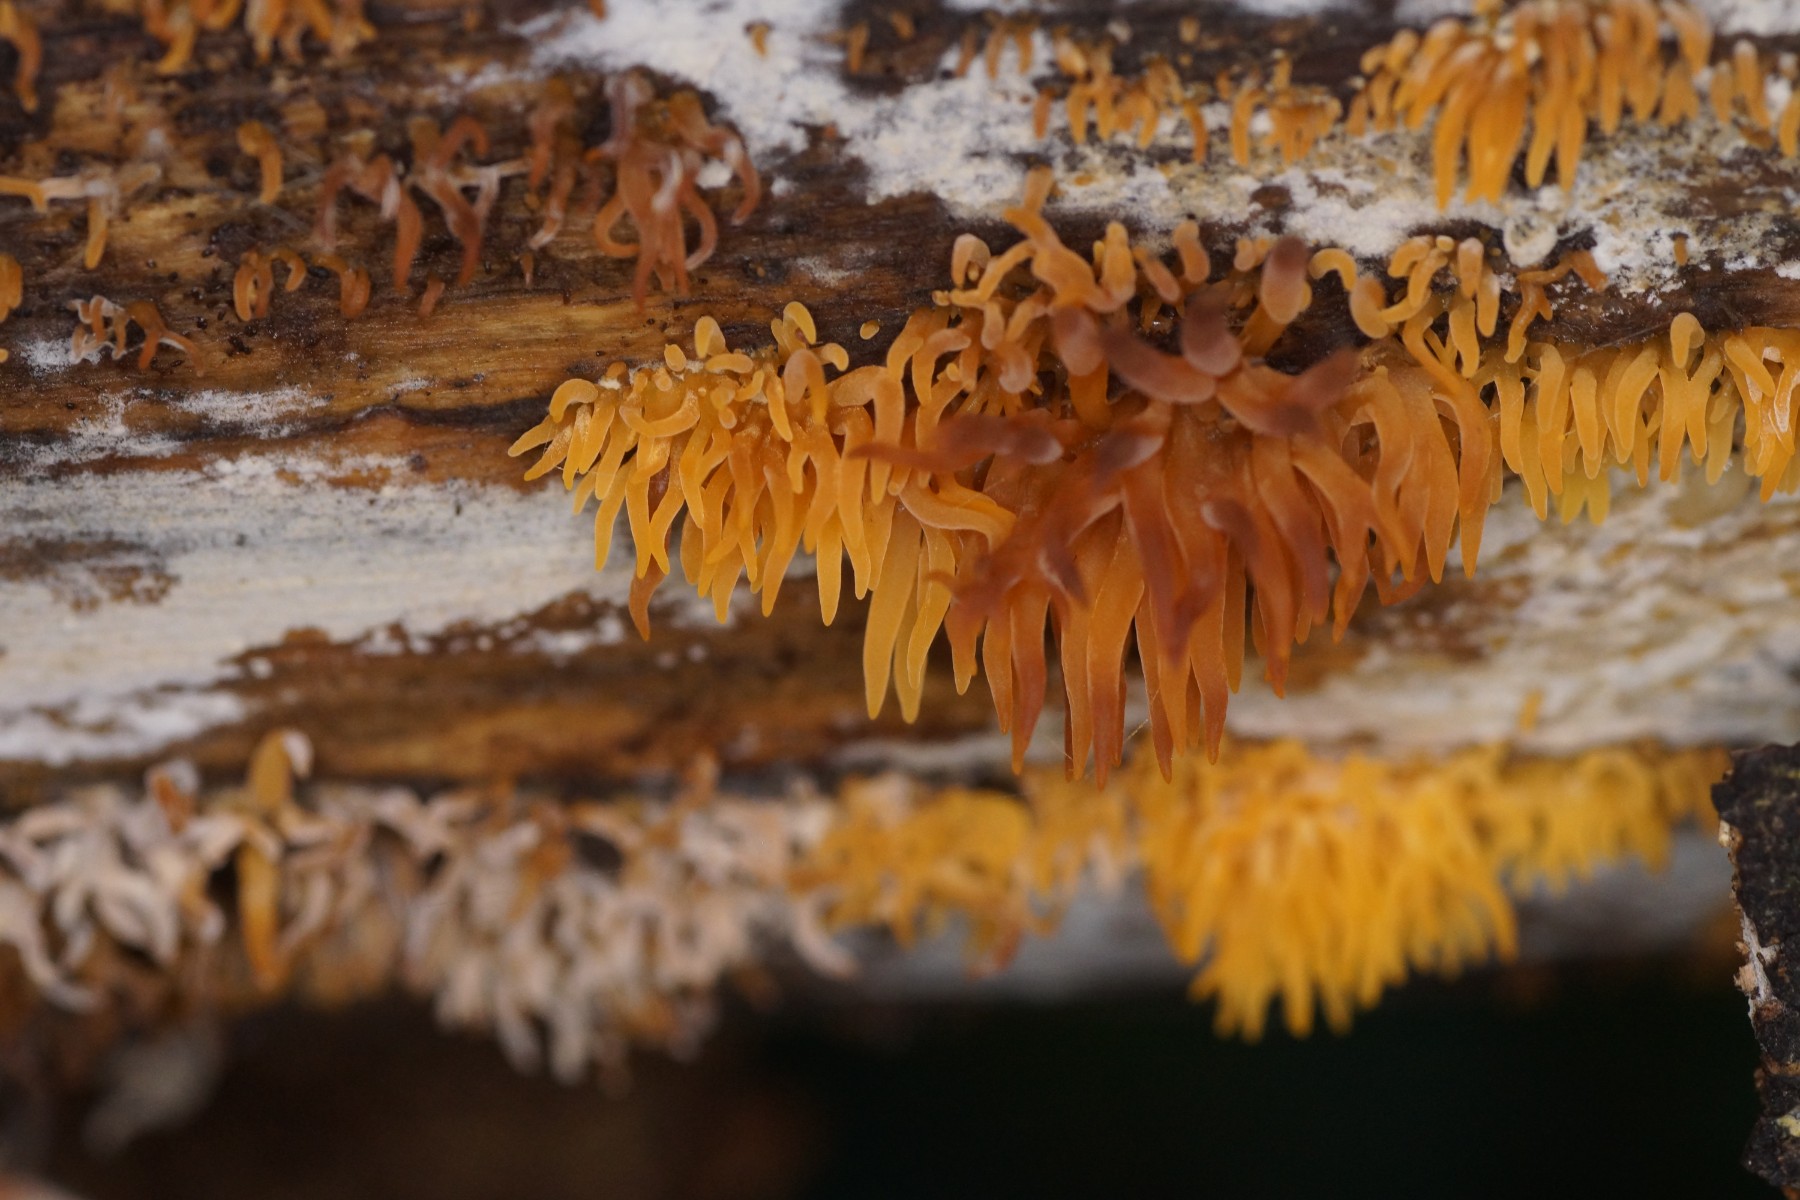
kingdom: Fungi
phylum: Basidiomycota
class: Dacrymycetes
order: Dacrymycetales
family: Dacrymycetaceae
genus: Calocera
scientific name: Calocera cornea
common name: liden guldgaffel
